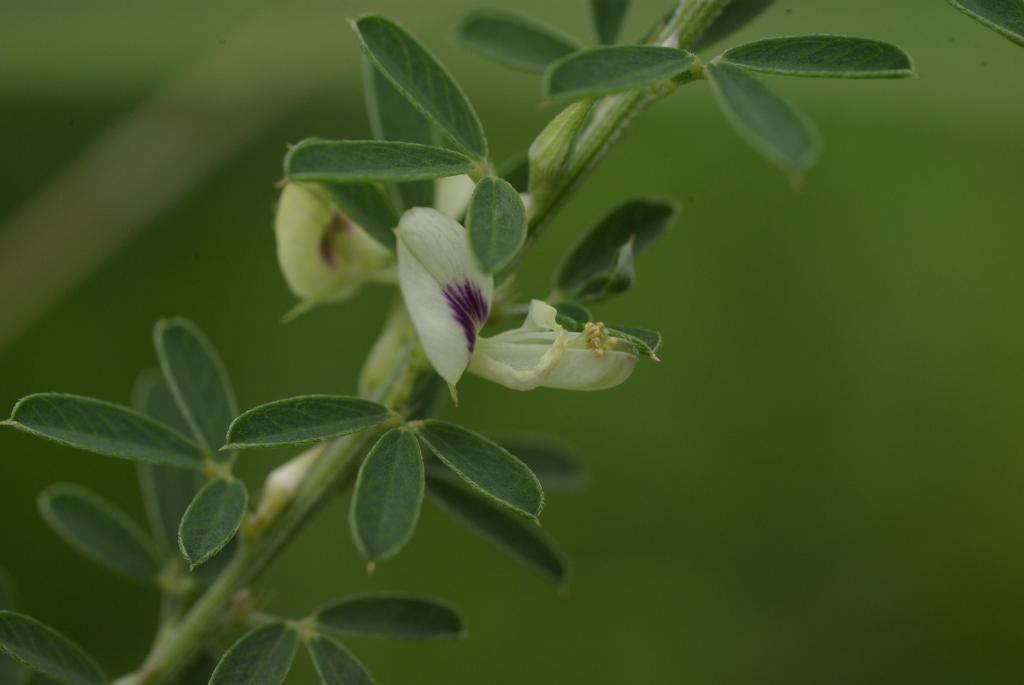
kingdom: Plantae
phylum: Tracheophyta
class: Magnoliopsida
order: Fabales
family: Fabaceae
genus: Lespedeza
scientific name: Lespedeza cuneata
